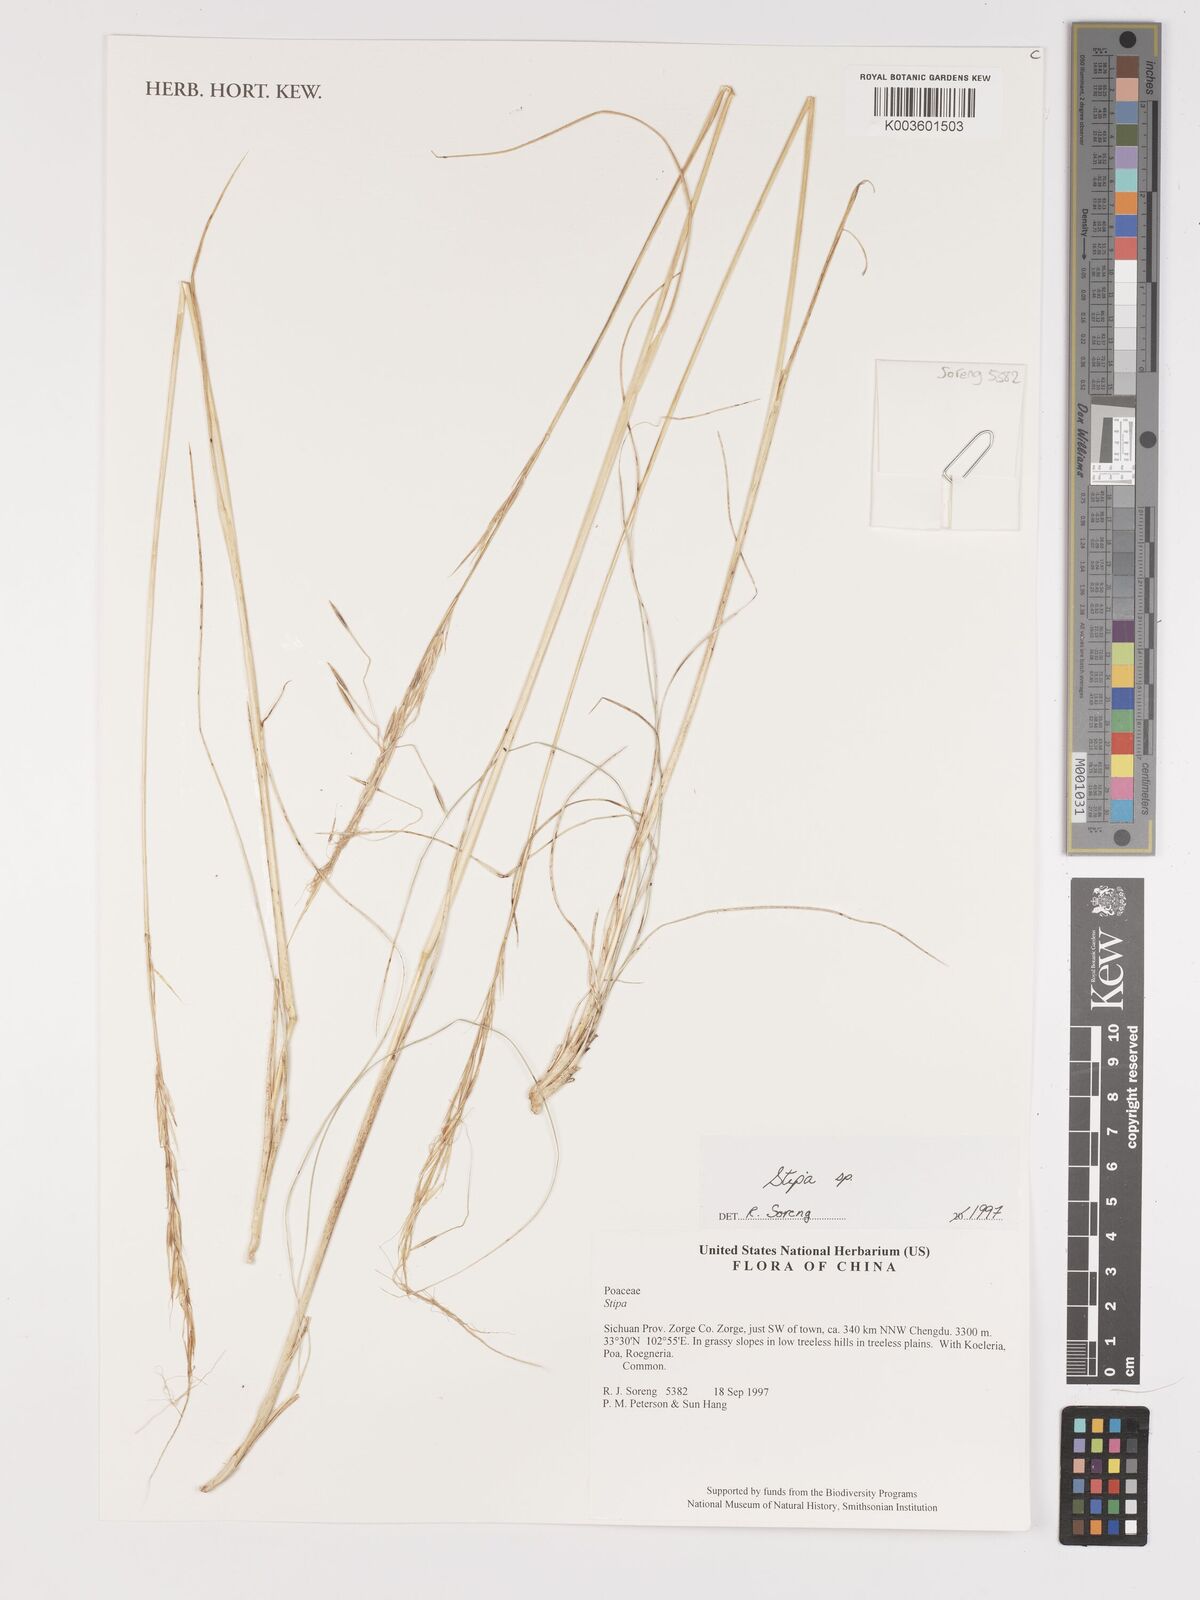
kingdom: Plantae
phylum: Tracheophyta
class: Liliopsida
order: Poales
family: Poaceae
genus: Stipa
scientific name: Stipa
